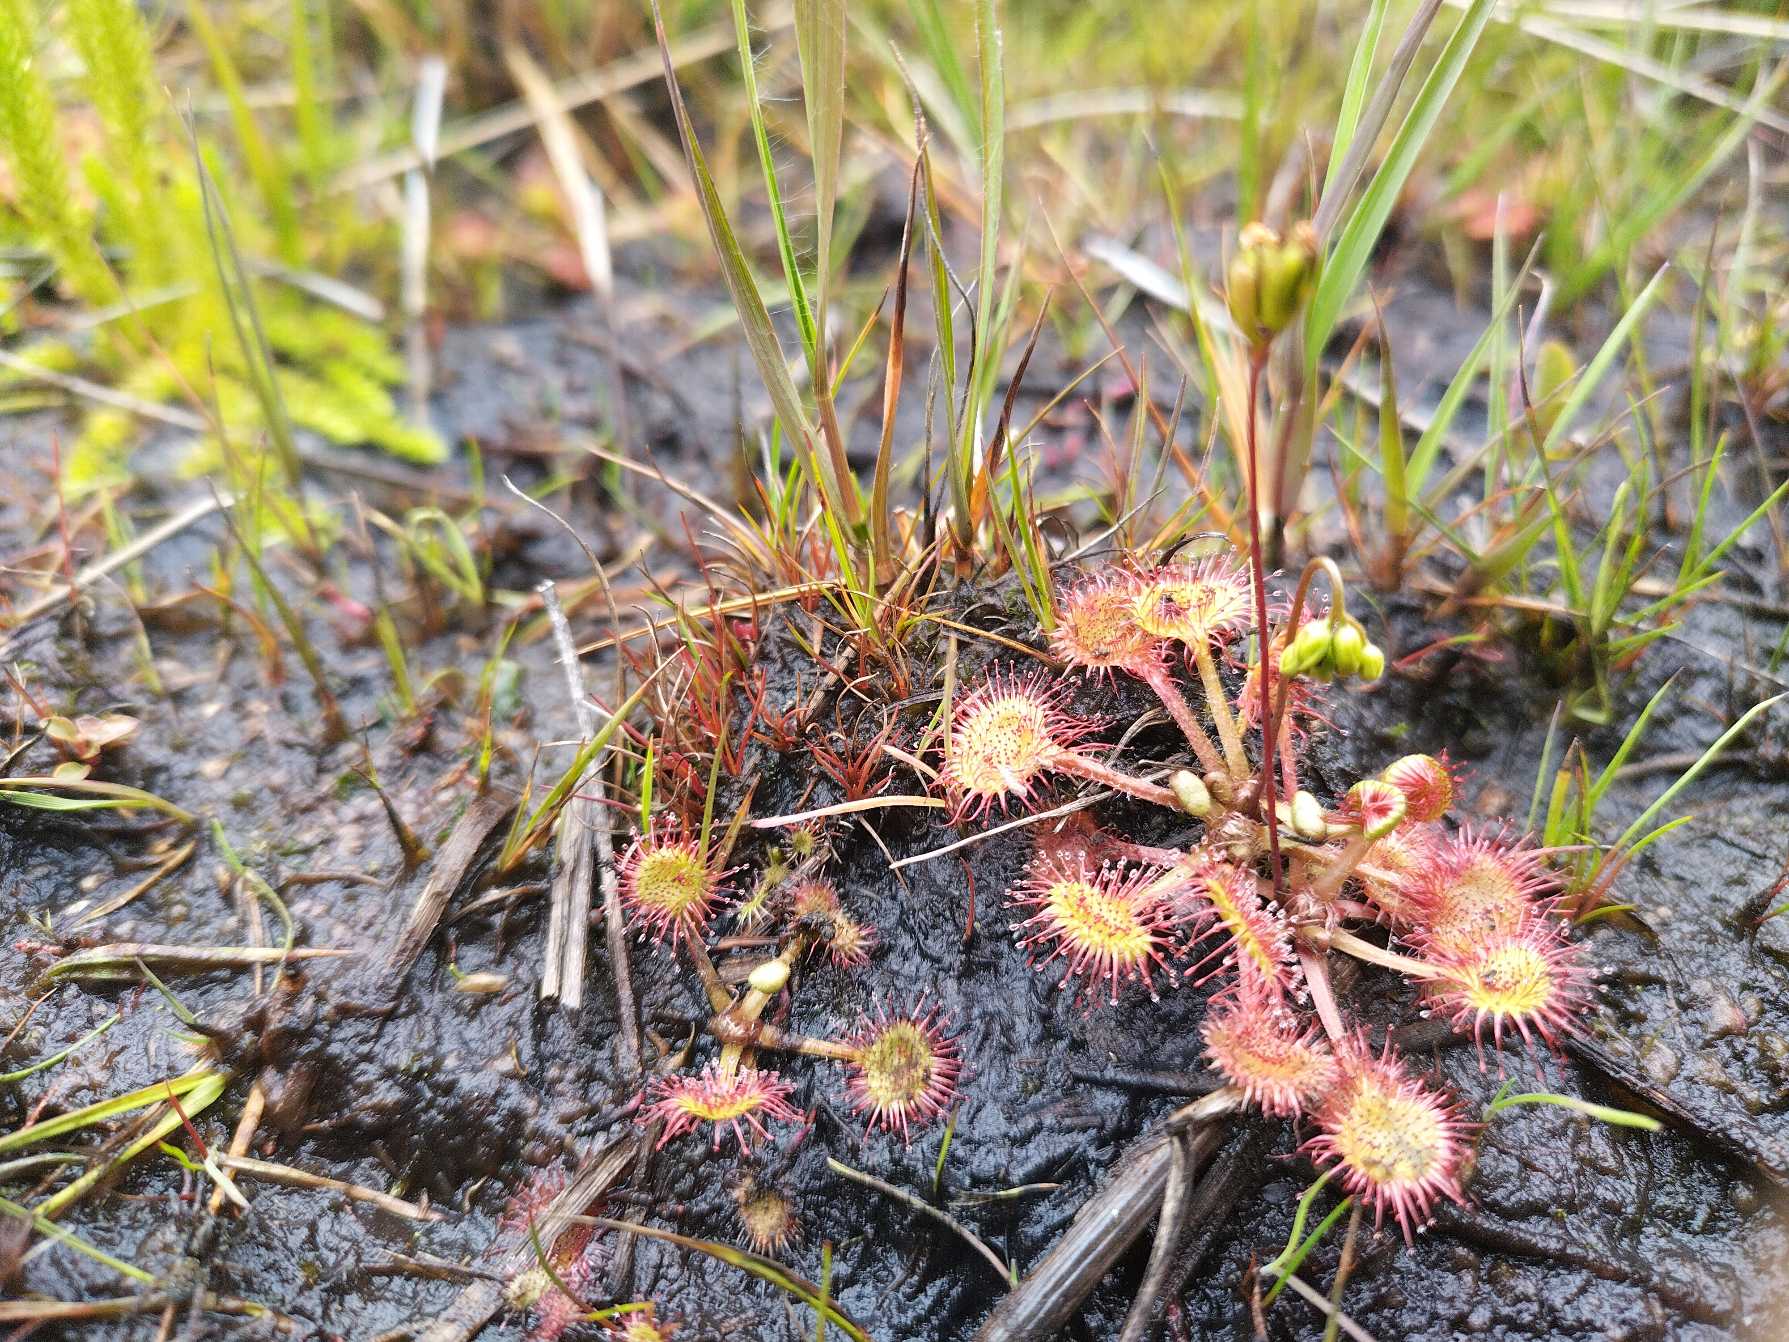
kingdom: Plantae
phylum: Tracheophyta
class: Magnoliopsida
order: Caryophyllales
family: Droseraceae
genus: Drosera
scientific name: Drosera rotundifolia
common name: Rundbladet soldug
